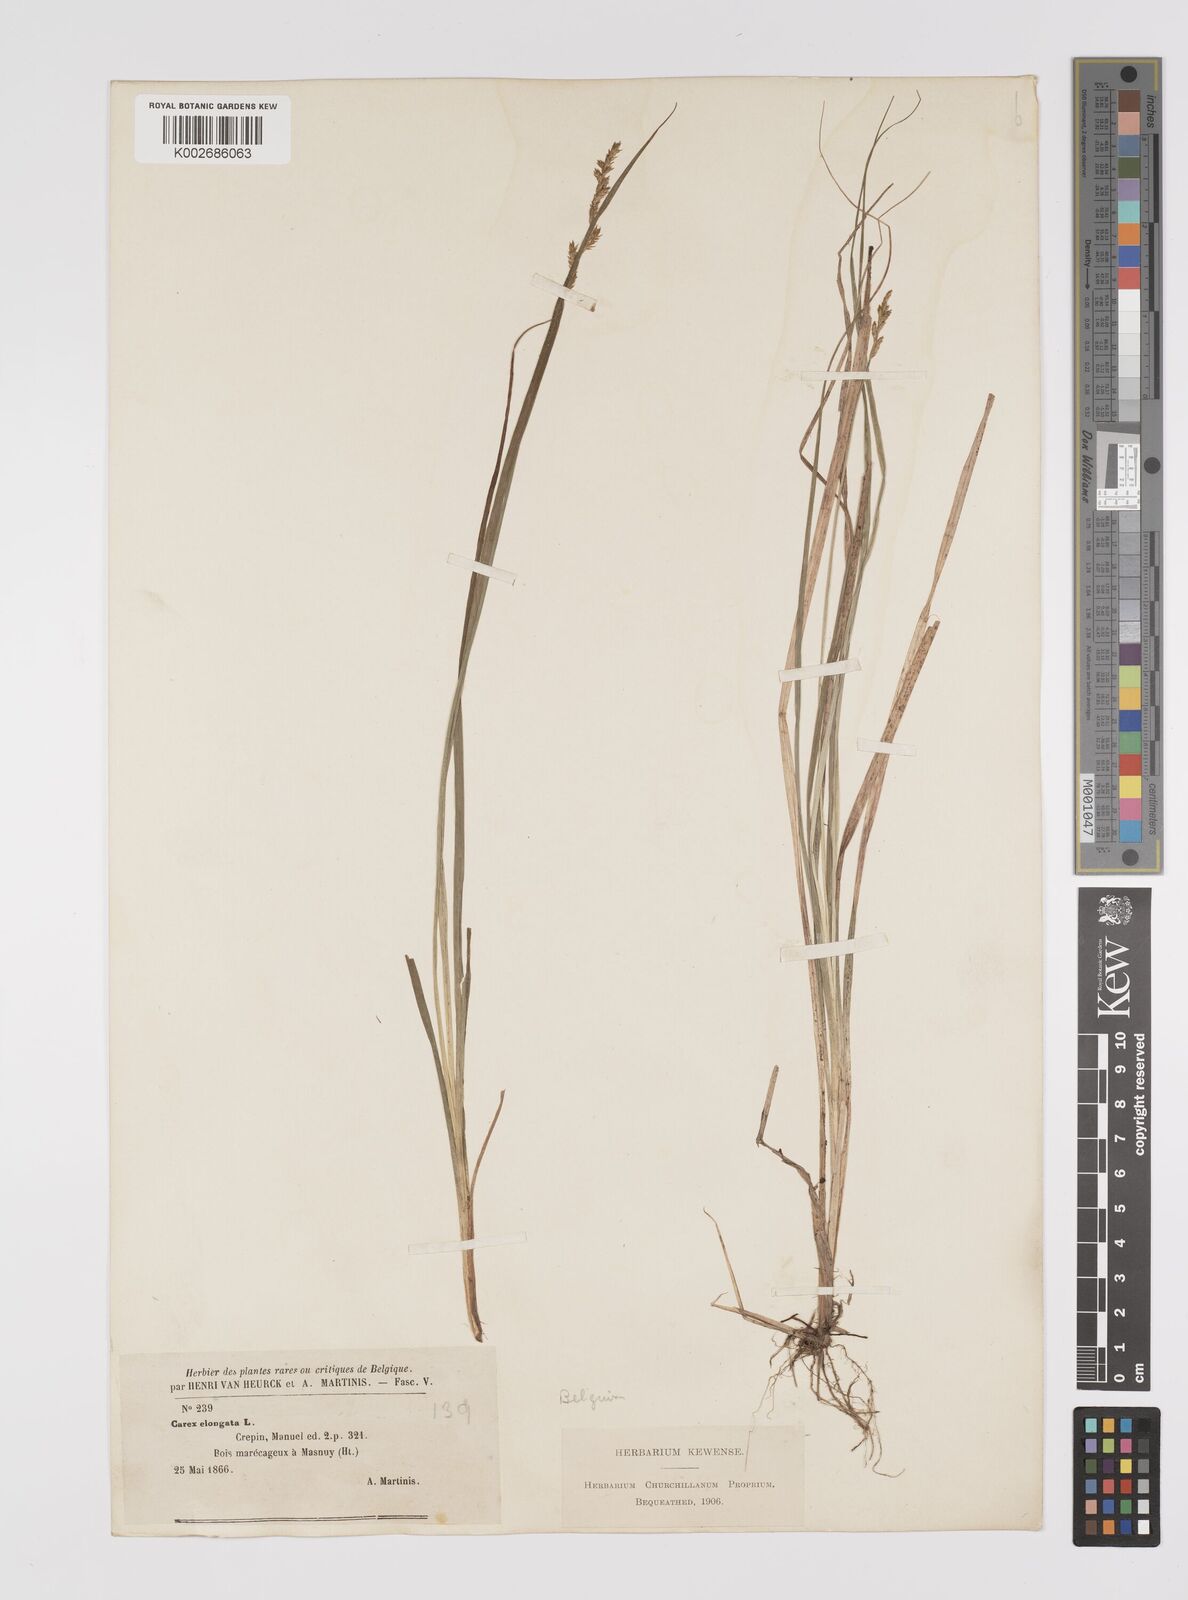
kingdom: Plantae
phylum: Tracheophyta
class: Liliopsida
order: Poales
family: Cyperaceae
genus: Carex
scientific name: Carex elongata
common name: Elongated sedge
